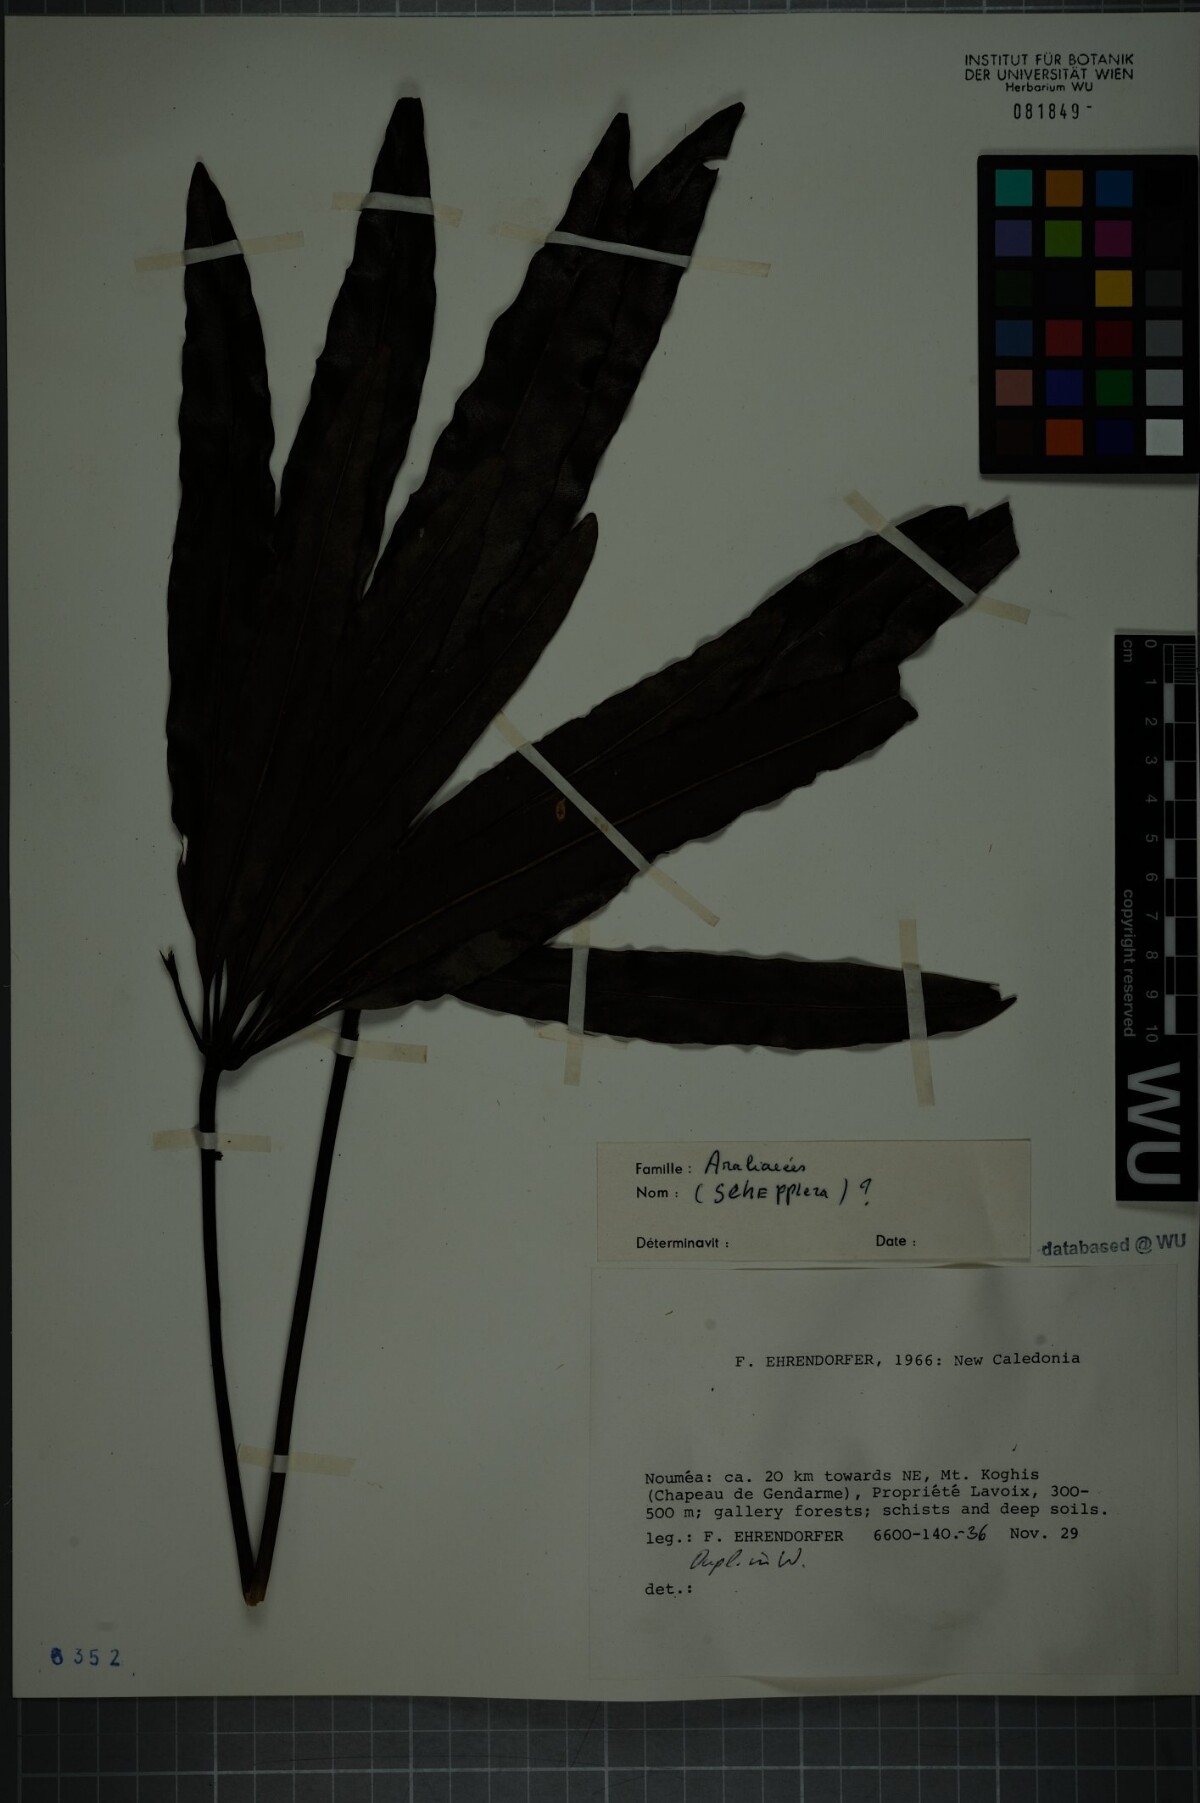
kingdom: Plantae
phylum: Tracheophyta
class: Magnoliopsida
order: Apiales
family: Araliaceae
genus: Schefflera
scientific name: Schefflera
